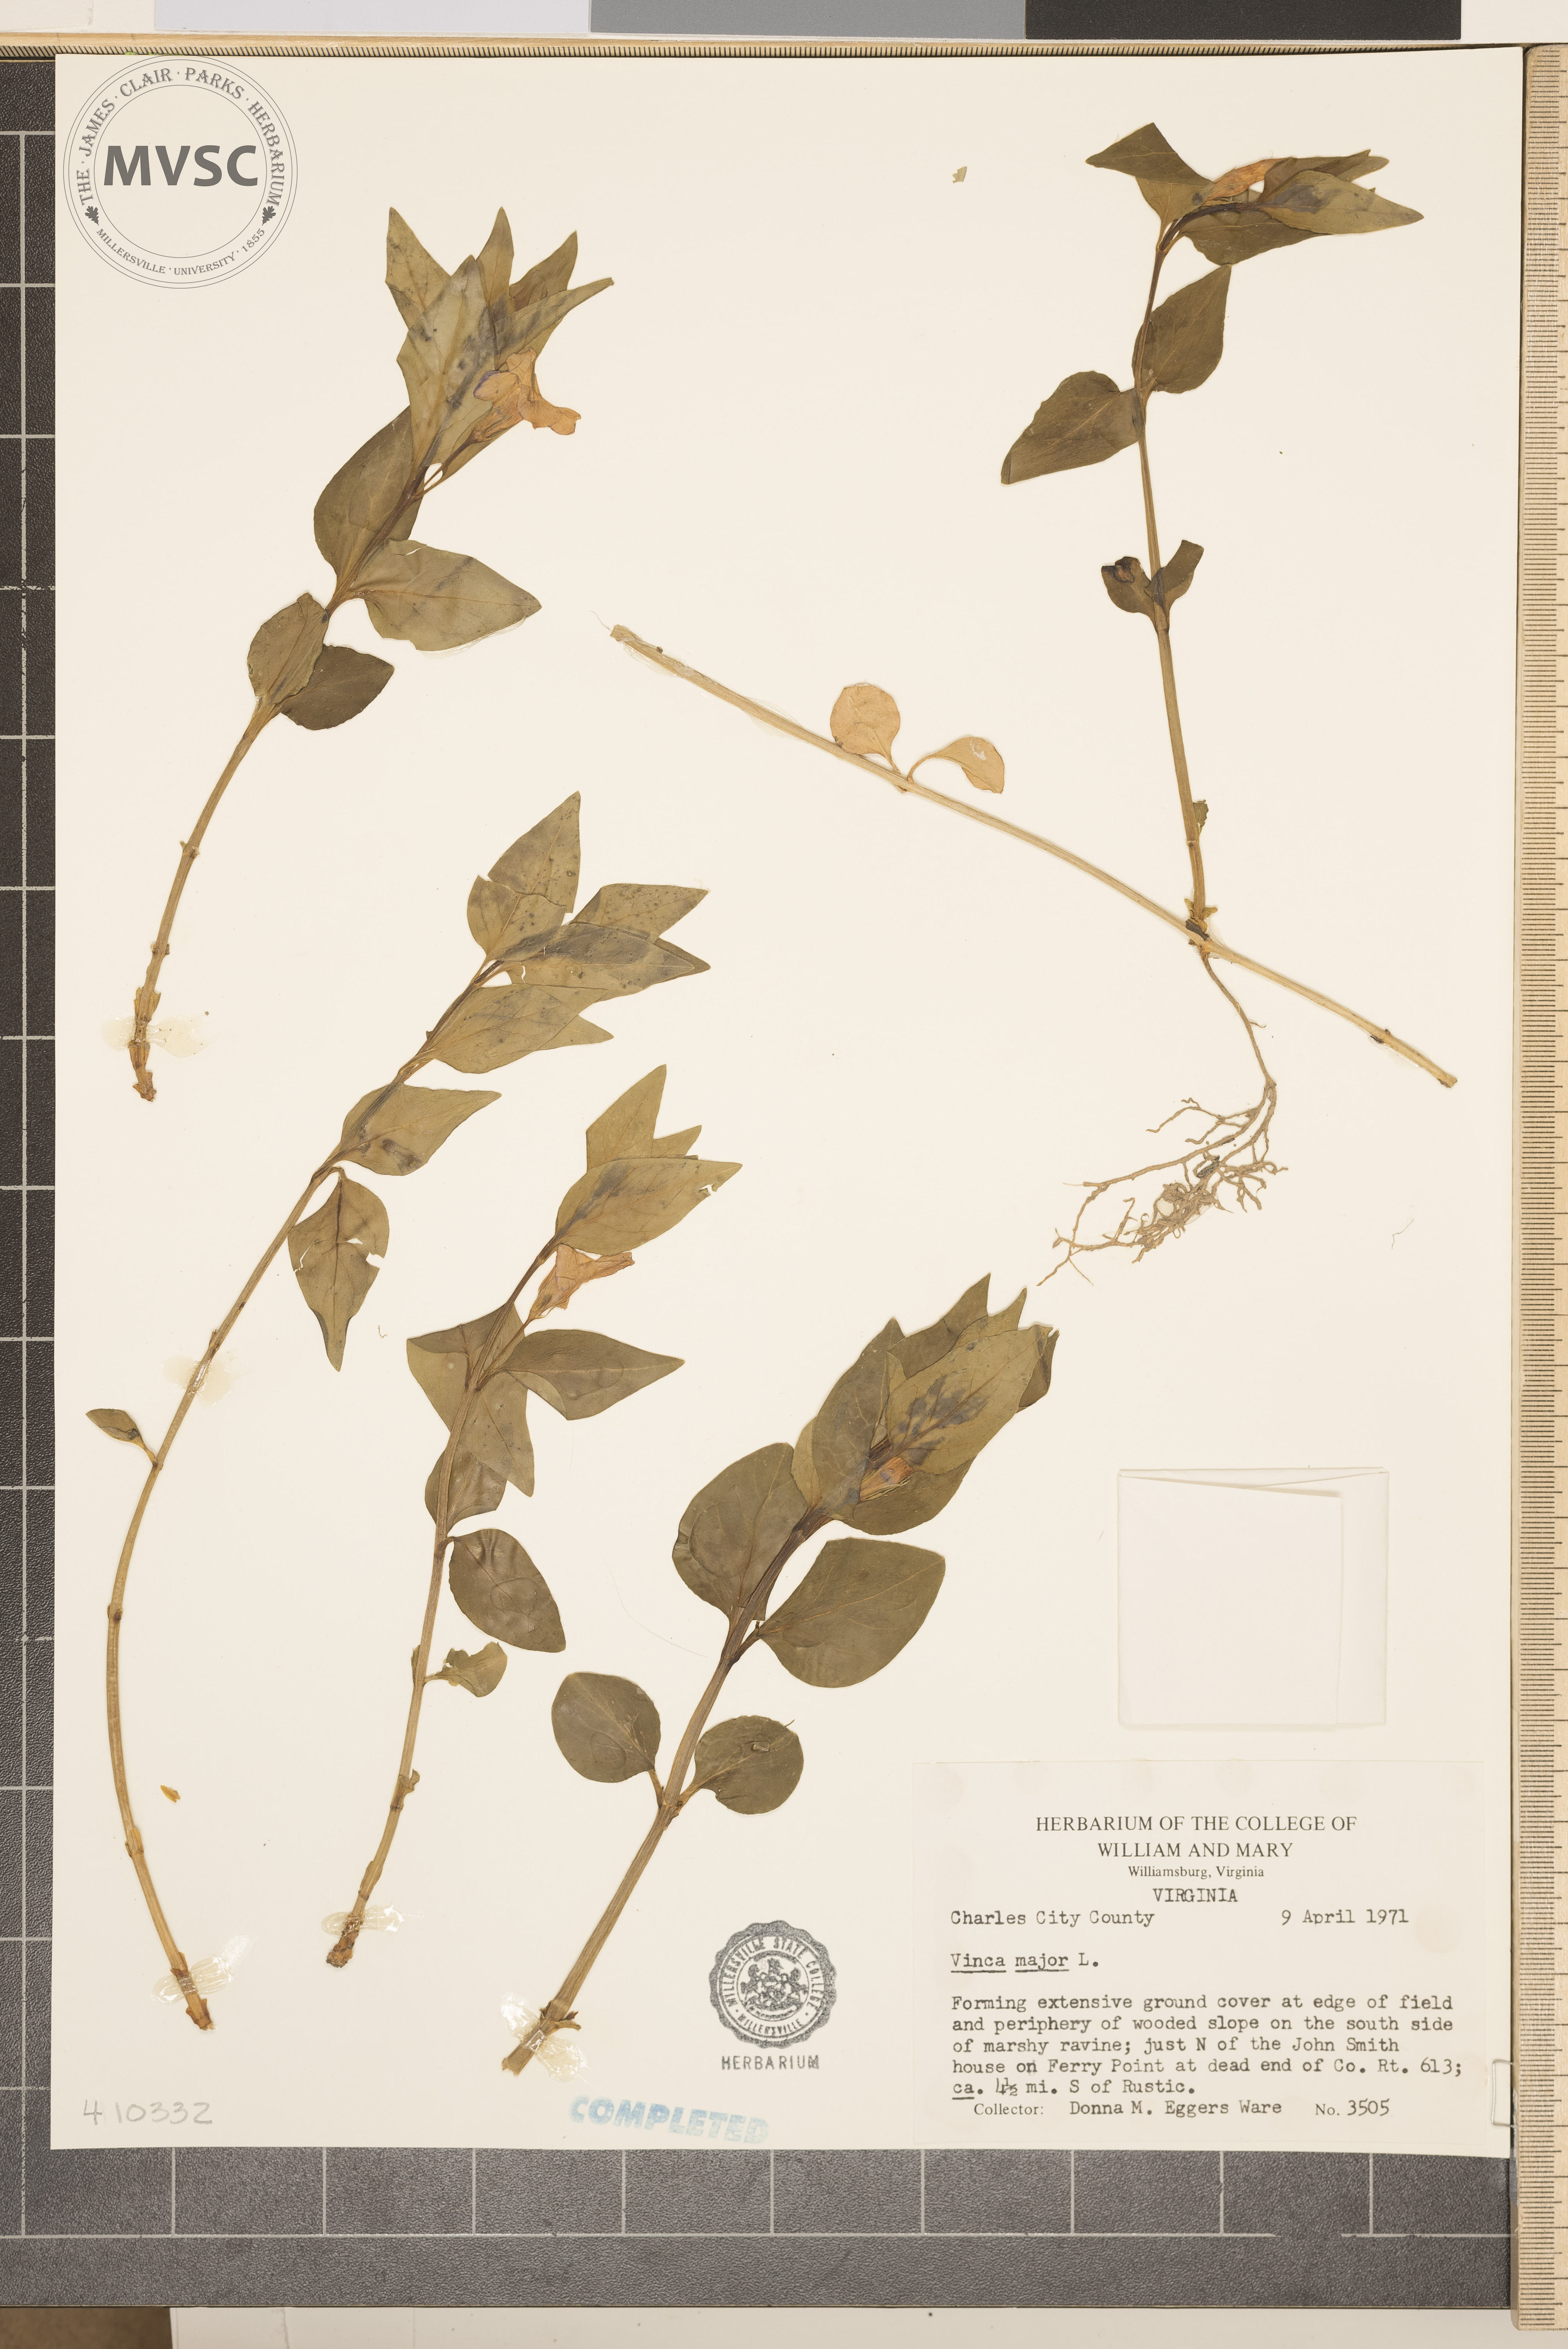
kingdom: Plantae
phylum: Tracheophyta
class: Magnoliopsida
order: Gentianales
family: Apocynaceae
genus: Vinca
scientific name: Vinca major
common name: Greater periwinkle
